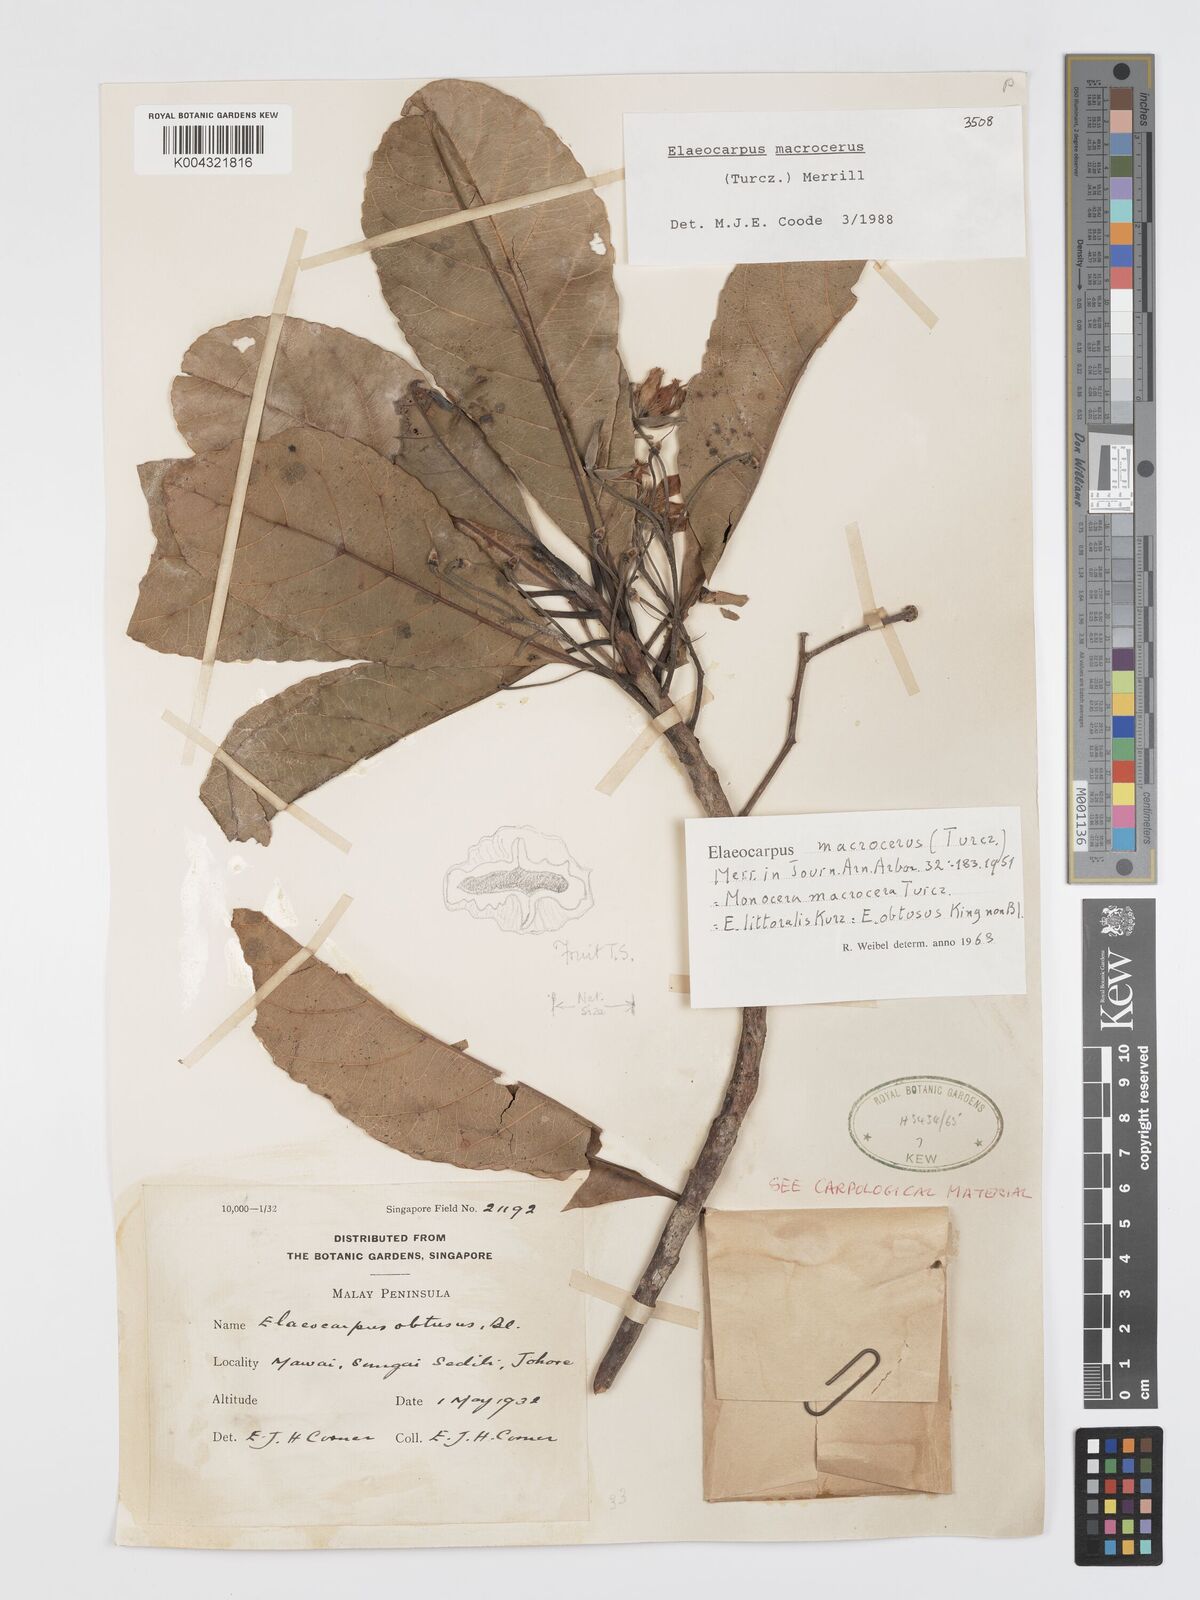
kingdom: Plantae
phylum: Tracheophyta
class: Magnoliopsida
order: Oxalidales
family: Elaeocarpaceae
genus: Elaeocarpus
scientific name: Elaeocarpus macrocerus
